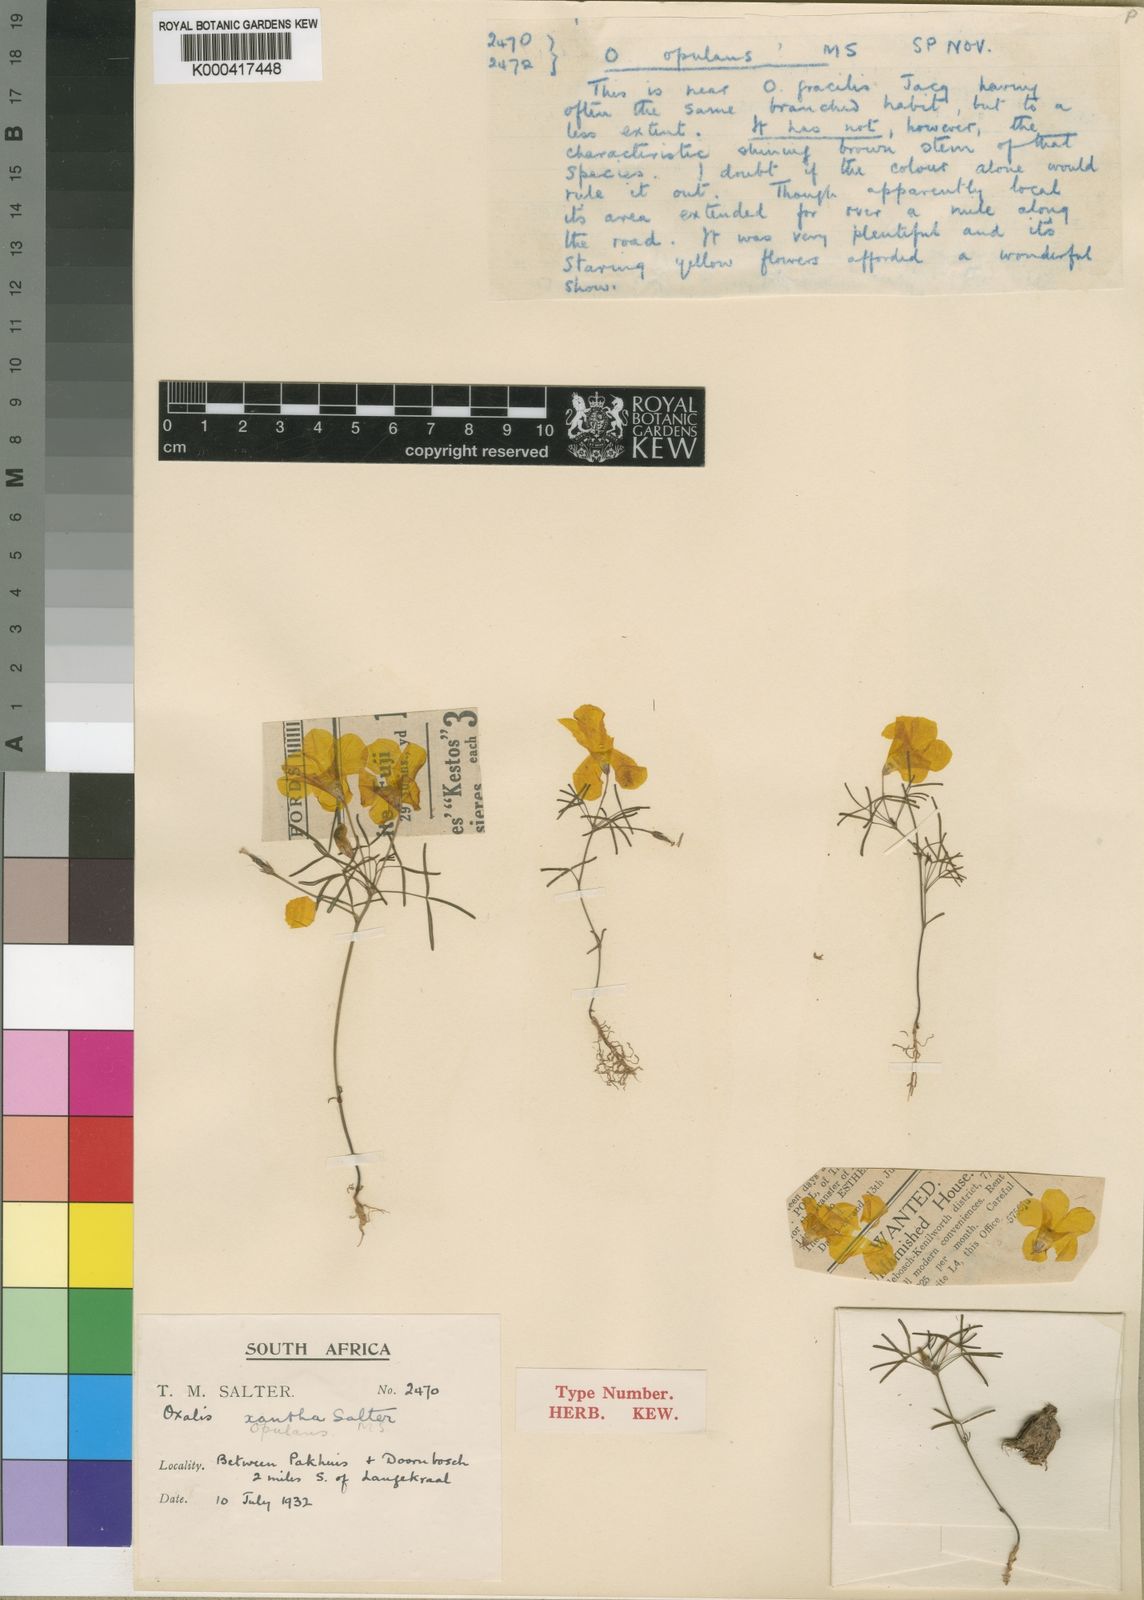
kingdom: Plantae
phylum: Tracheophyta
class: Magnoliopsida
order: Oxalidales
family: Oxalidaceae
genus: Oxalis
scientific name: Oxalis xantha
